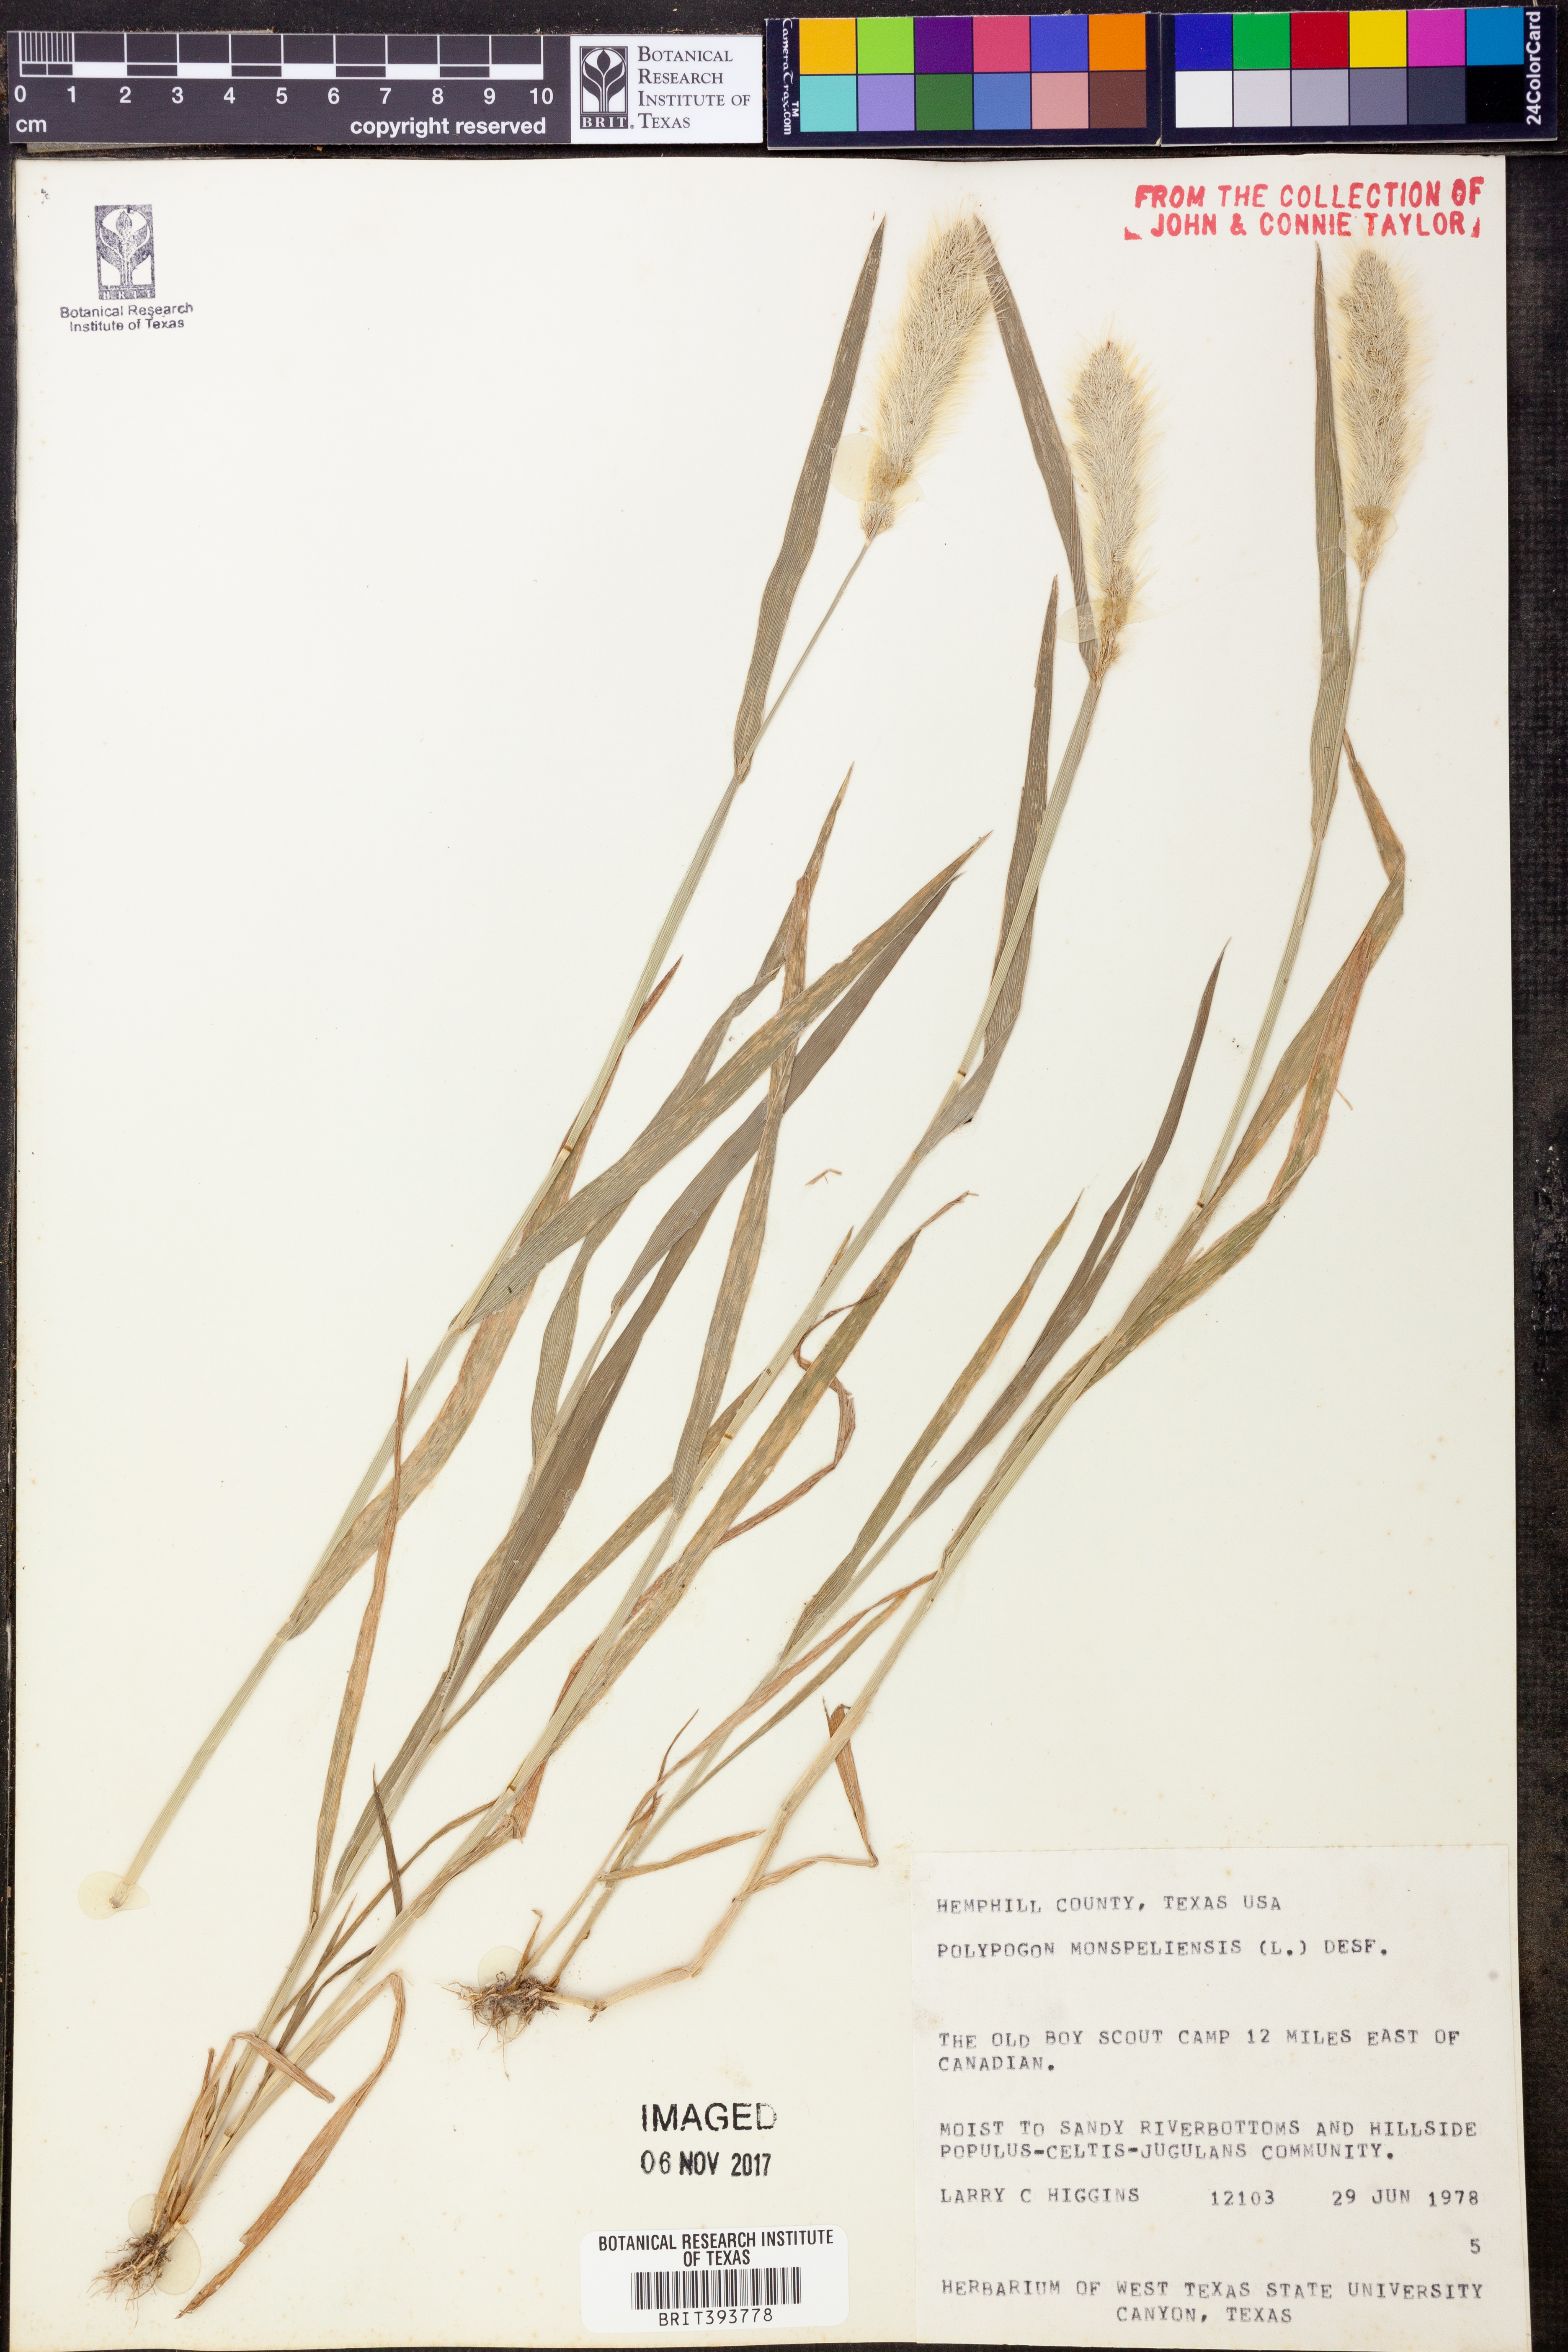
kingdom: Plantae
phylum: Tracheophyta
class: Liliopsida
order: Poales
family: Poaceae
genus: Polypogon
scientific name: Polypogon monspeliensis
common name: Annual rabbitsfoot grass
